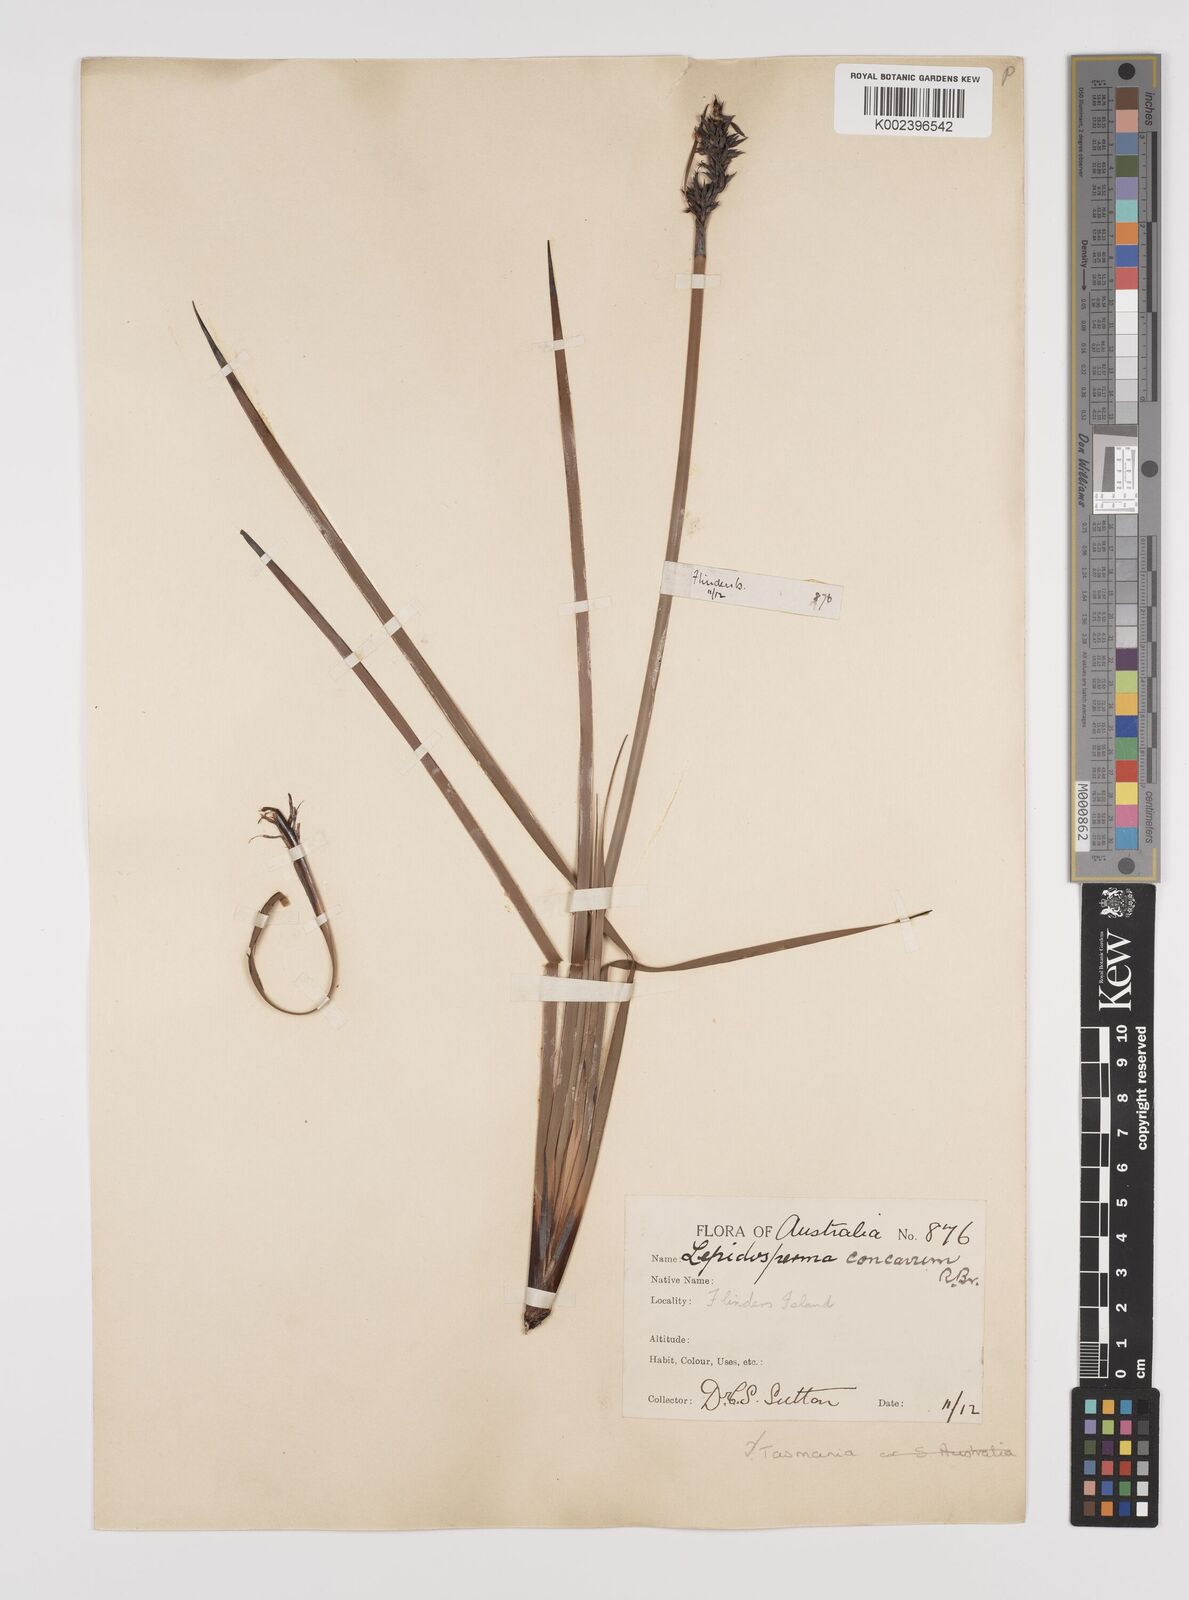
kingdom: Plantae
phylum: Tracheophyta
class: Liliopsida
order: Poales
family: Cyperaceae
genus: Lepidosperma
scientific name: Lepidosperma concavum
